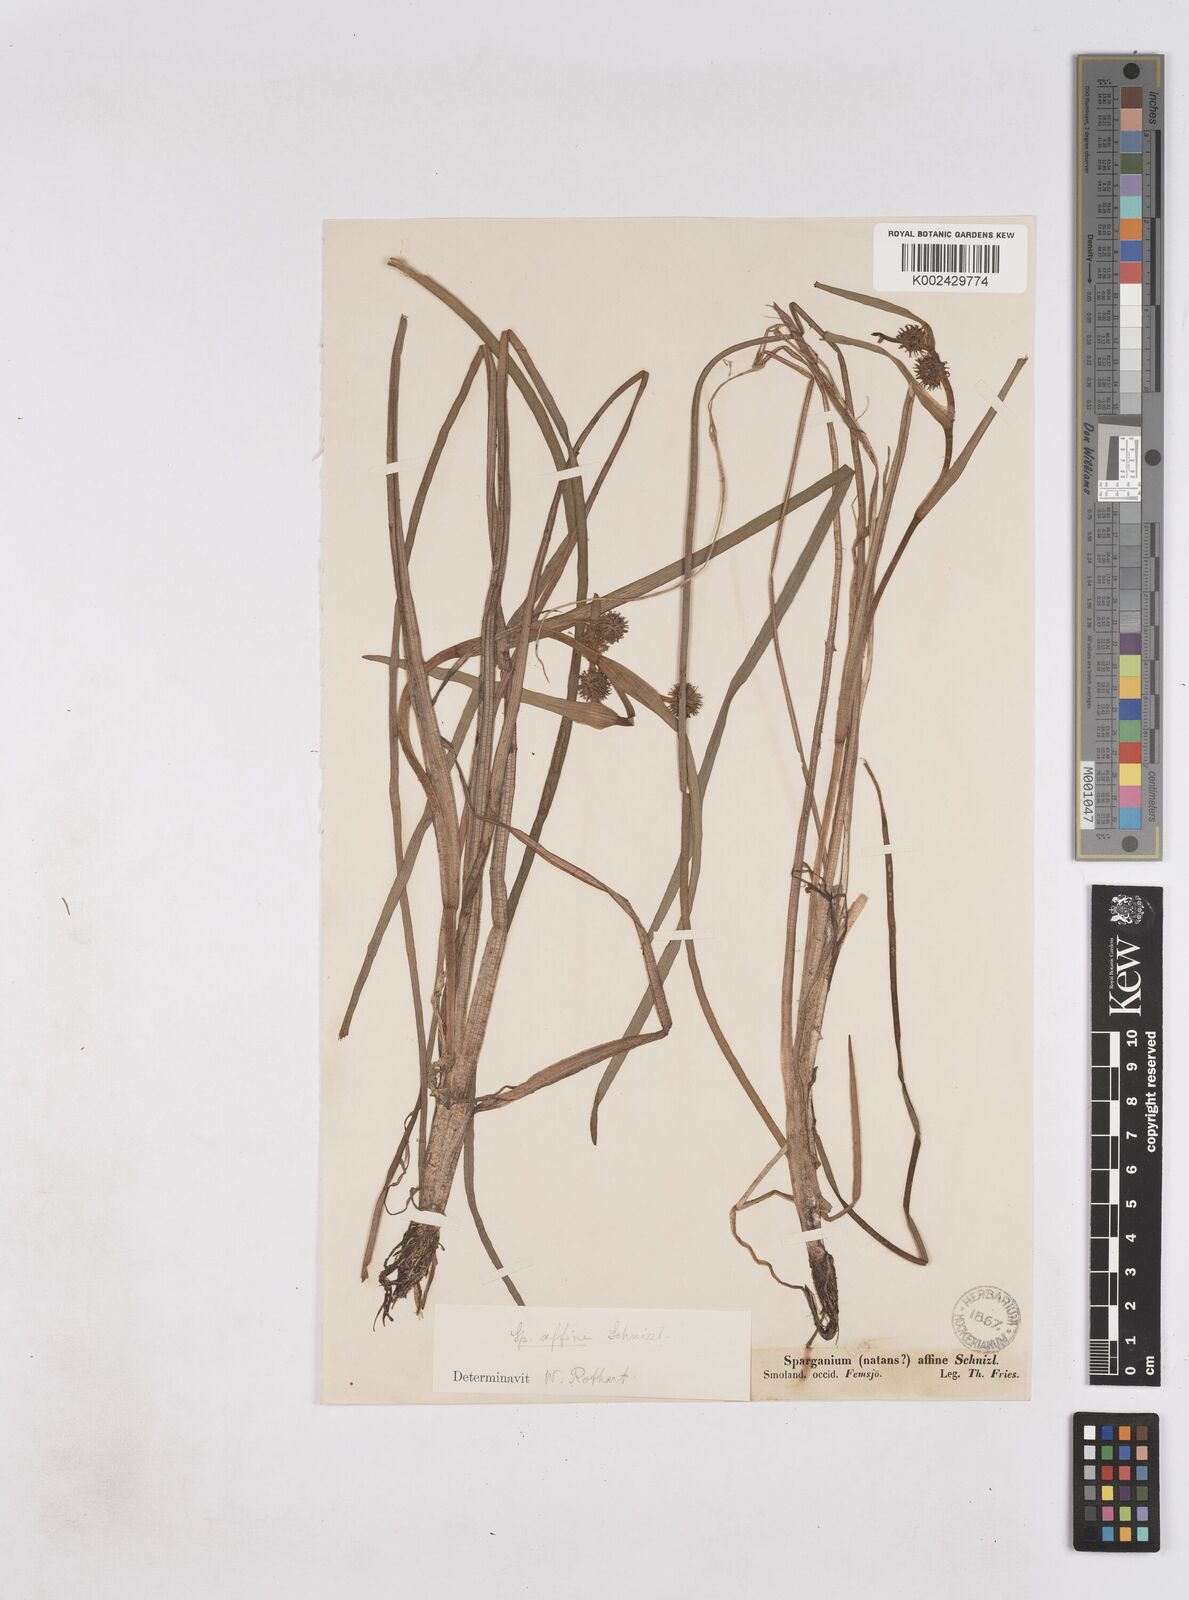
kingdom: Plantae
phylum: Tracheophyta
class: Liliopsida
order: Poales
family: Typhaceae
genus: Sparganium
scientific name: Sparganium angustifolium
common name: Floating bur-reed
